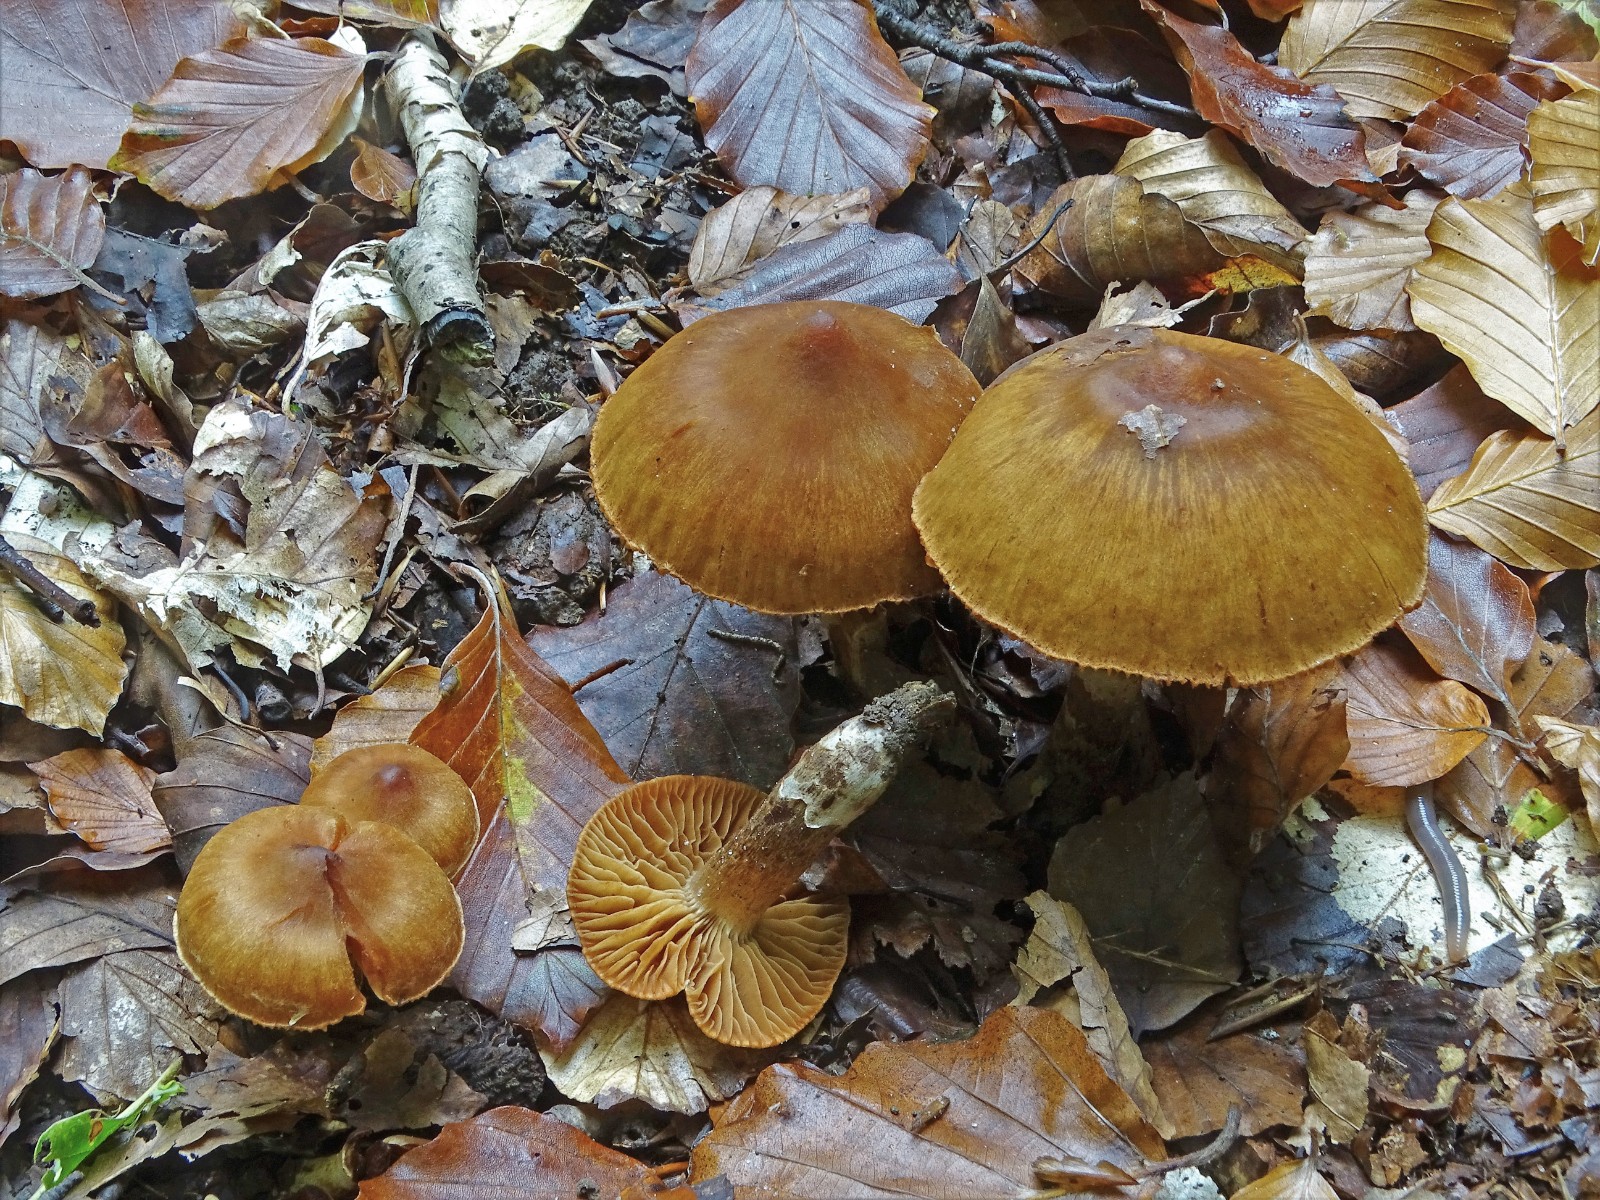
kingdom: Fungi
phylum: Basidiomycota
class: Agaricomycetes
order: Agaricales
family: Cortinariaceae
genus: Cortinarius
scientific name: Cortinarius hinnuleus
